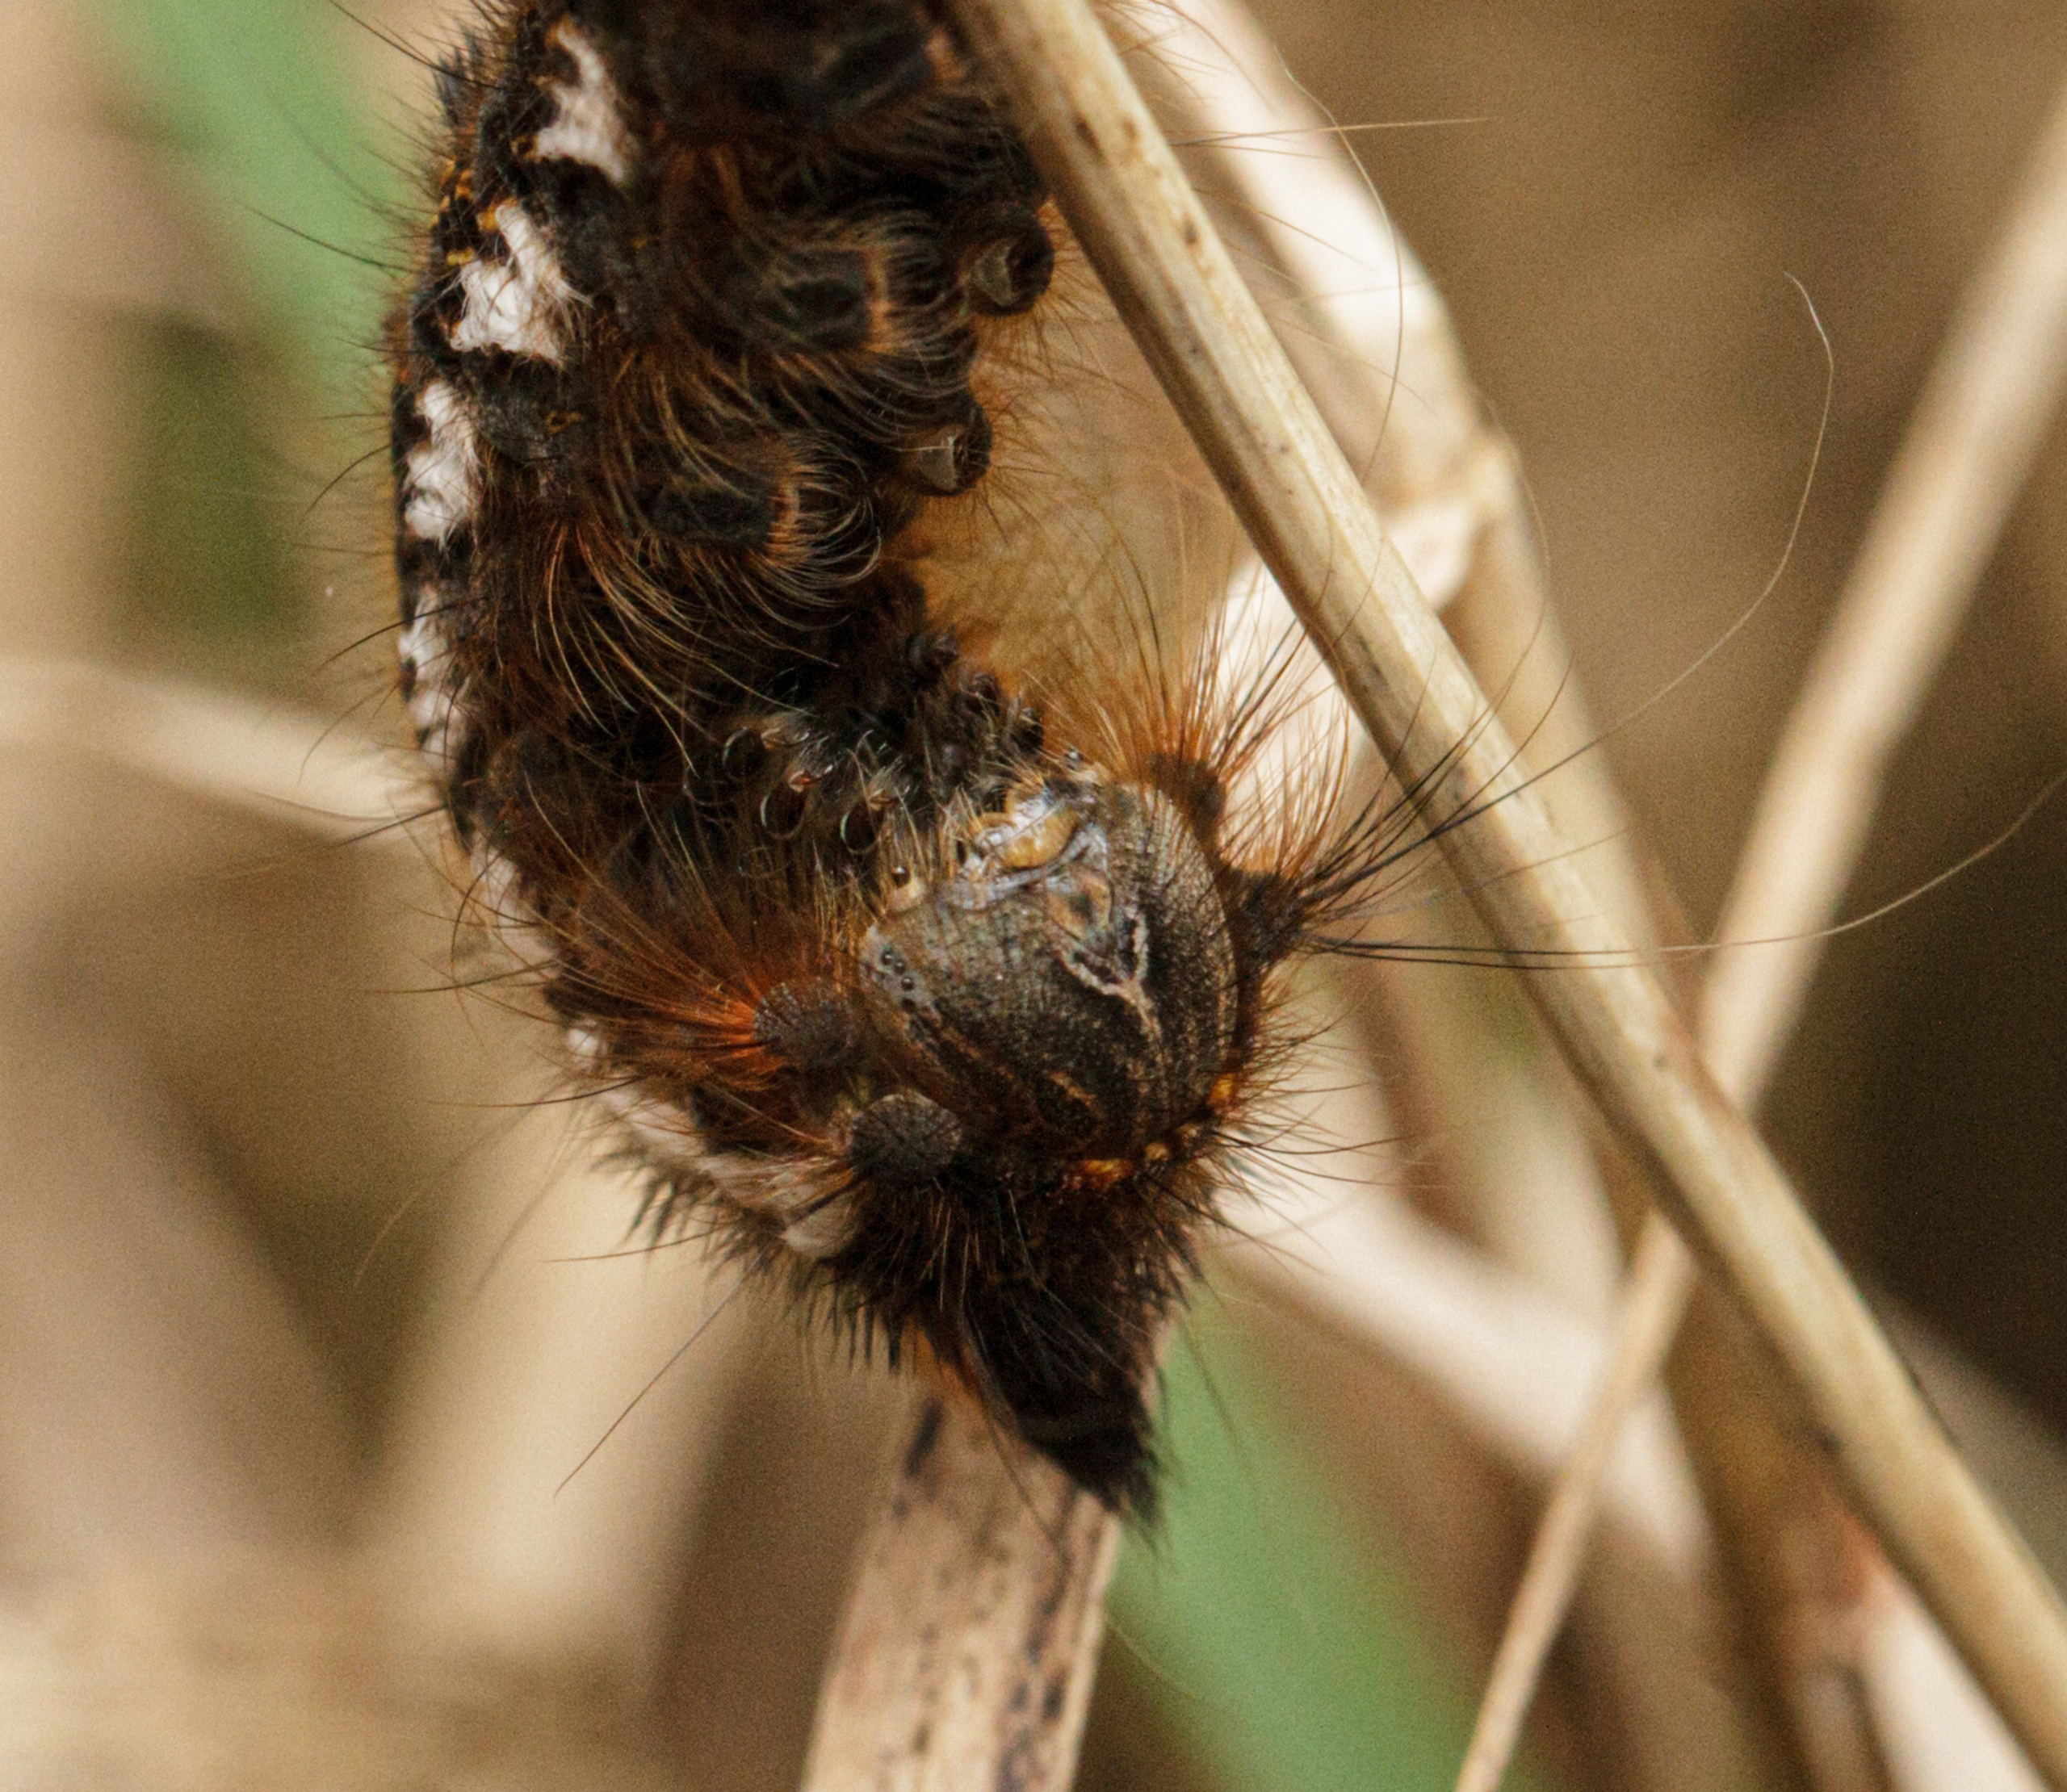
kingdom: Animalia
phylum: Arthropoda
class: Insecta
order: Lepidoptera
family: Lasiocampidae
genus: Euthrix
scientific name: Euthrix potatoria
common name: Græsspinder
